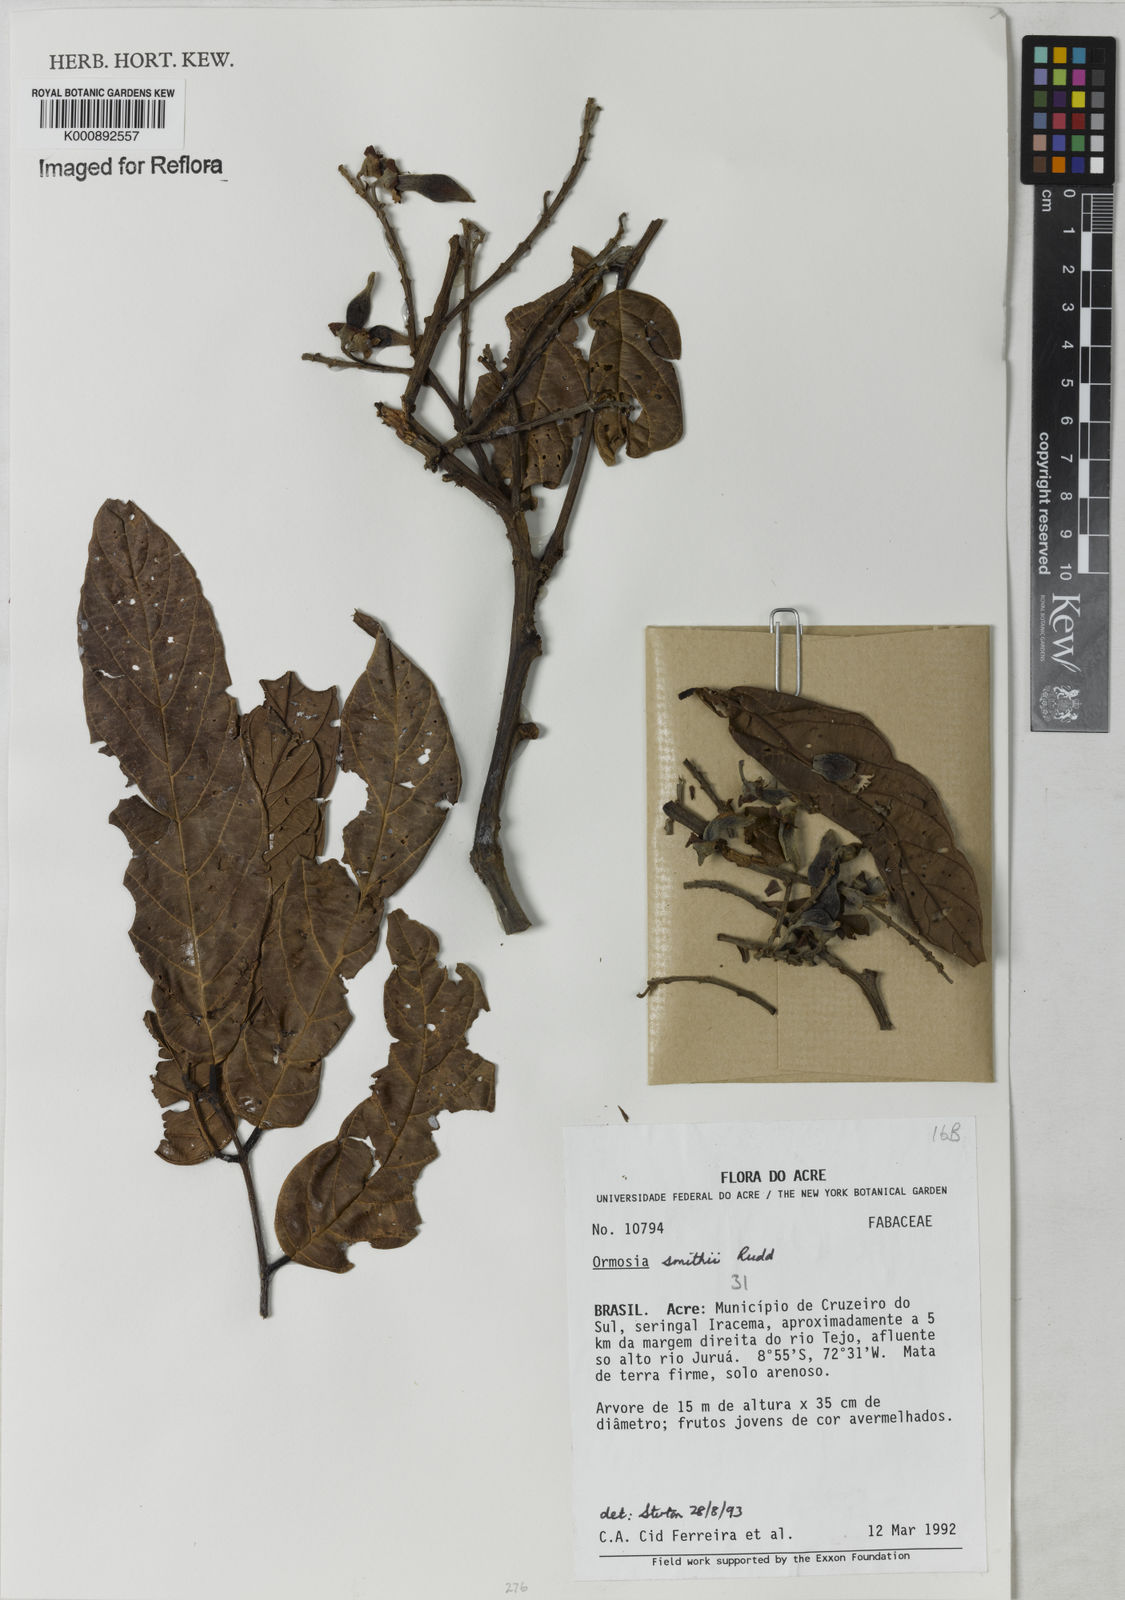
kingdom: Plantae
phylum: Tracheophyta
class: Magnoliopsida
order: Fabales
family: Fabaceae
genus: Ormosia
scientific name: Ormosia smithii
